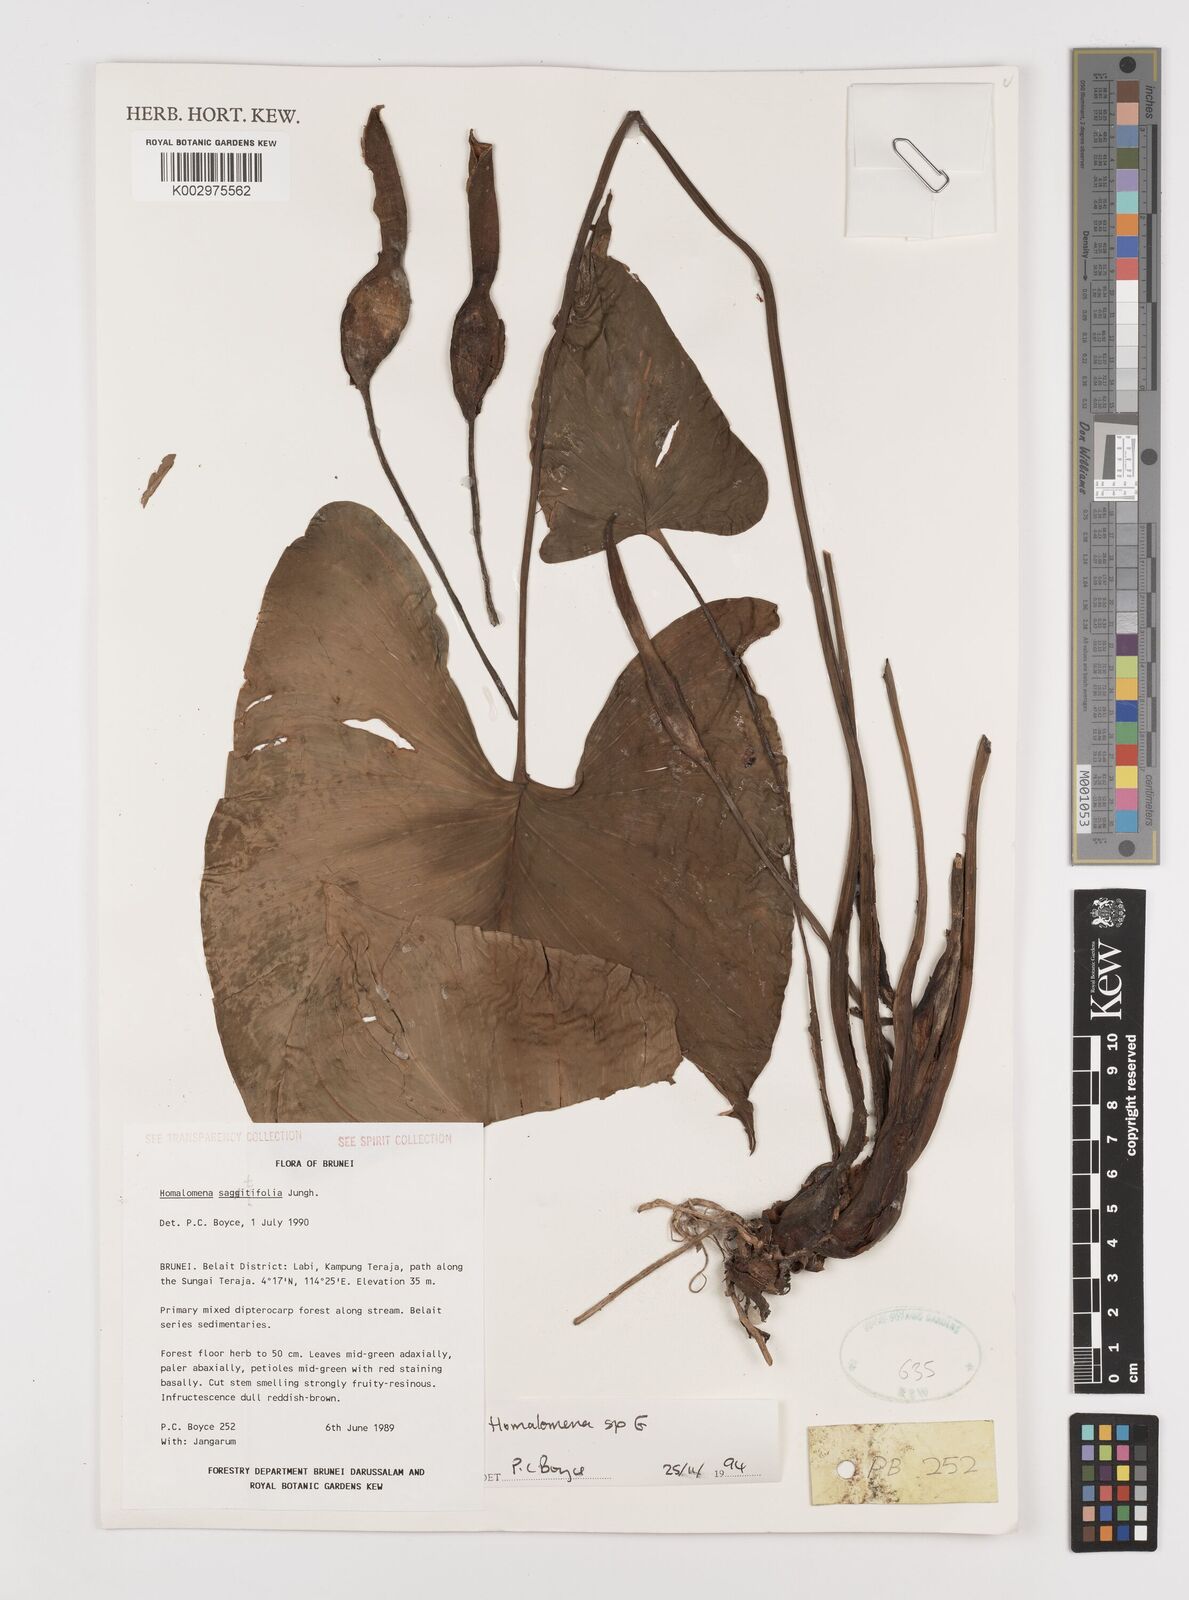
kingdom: Plantae
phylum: Tracheophyta
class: Liliopsida
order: Alismatales
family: Araceae
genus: Homalomena
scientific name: Homalomena
